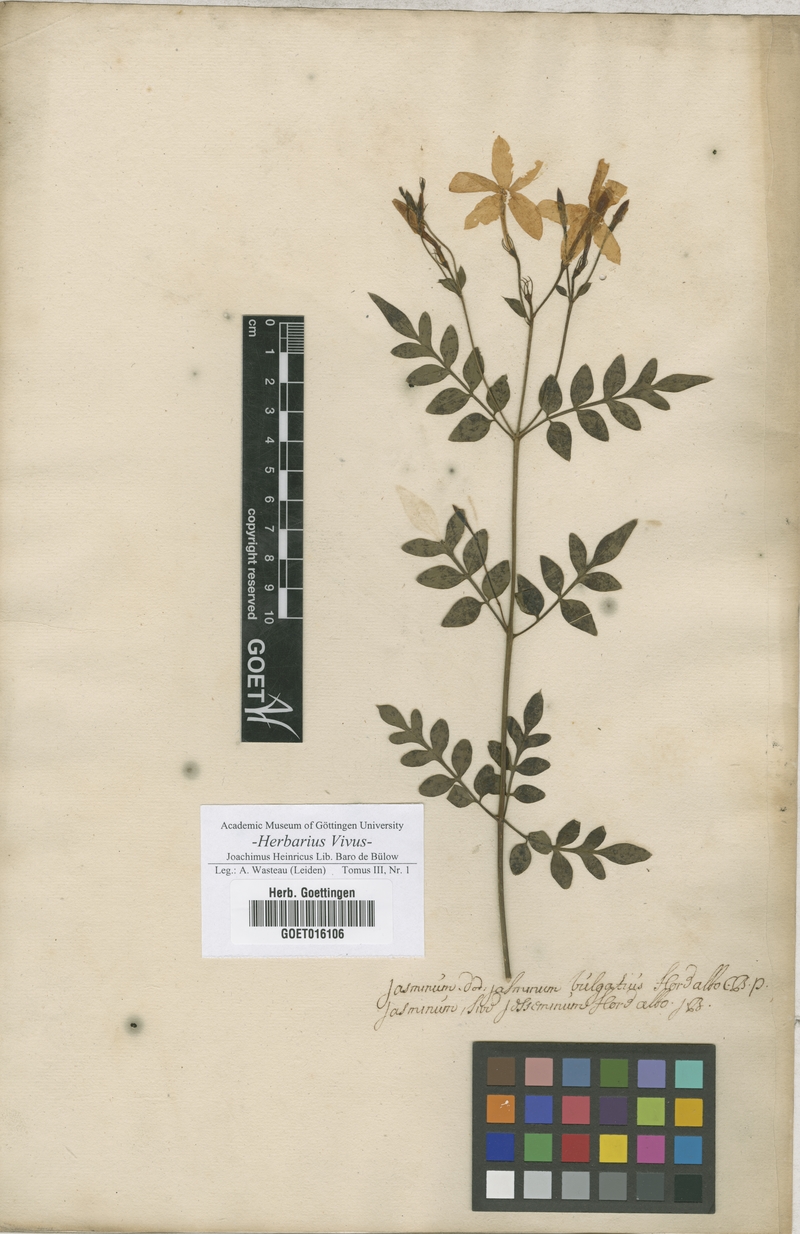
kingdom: Plantae
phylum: Tracheophyta
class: Magnoliopsida
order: Lamiales
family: Oleaceae
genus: Jasminum
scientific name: Jasminum officinale
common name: Summer jasmine
